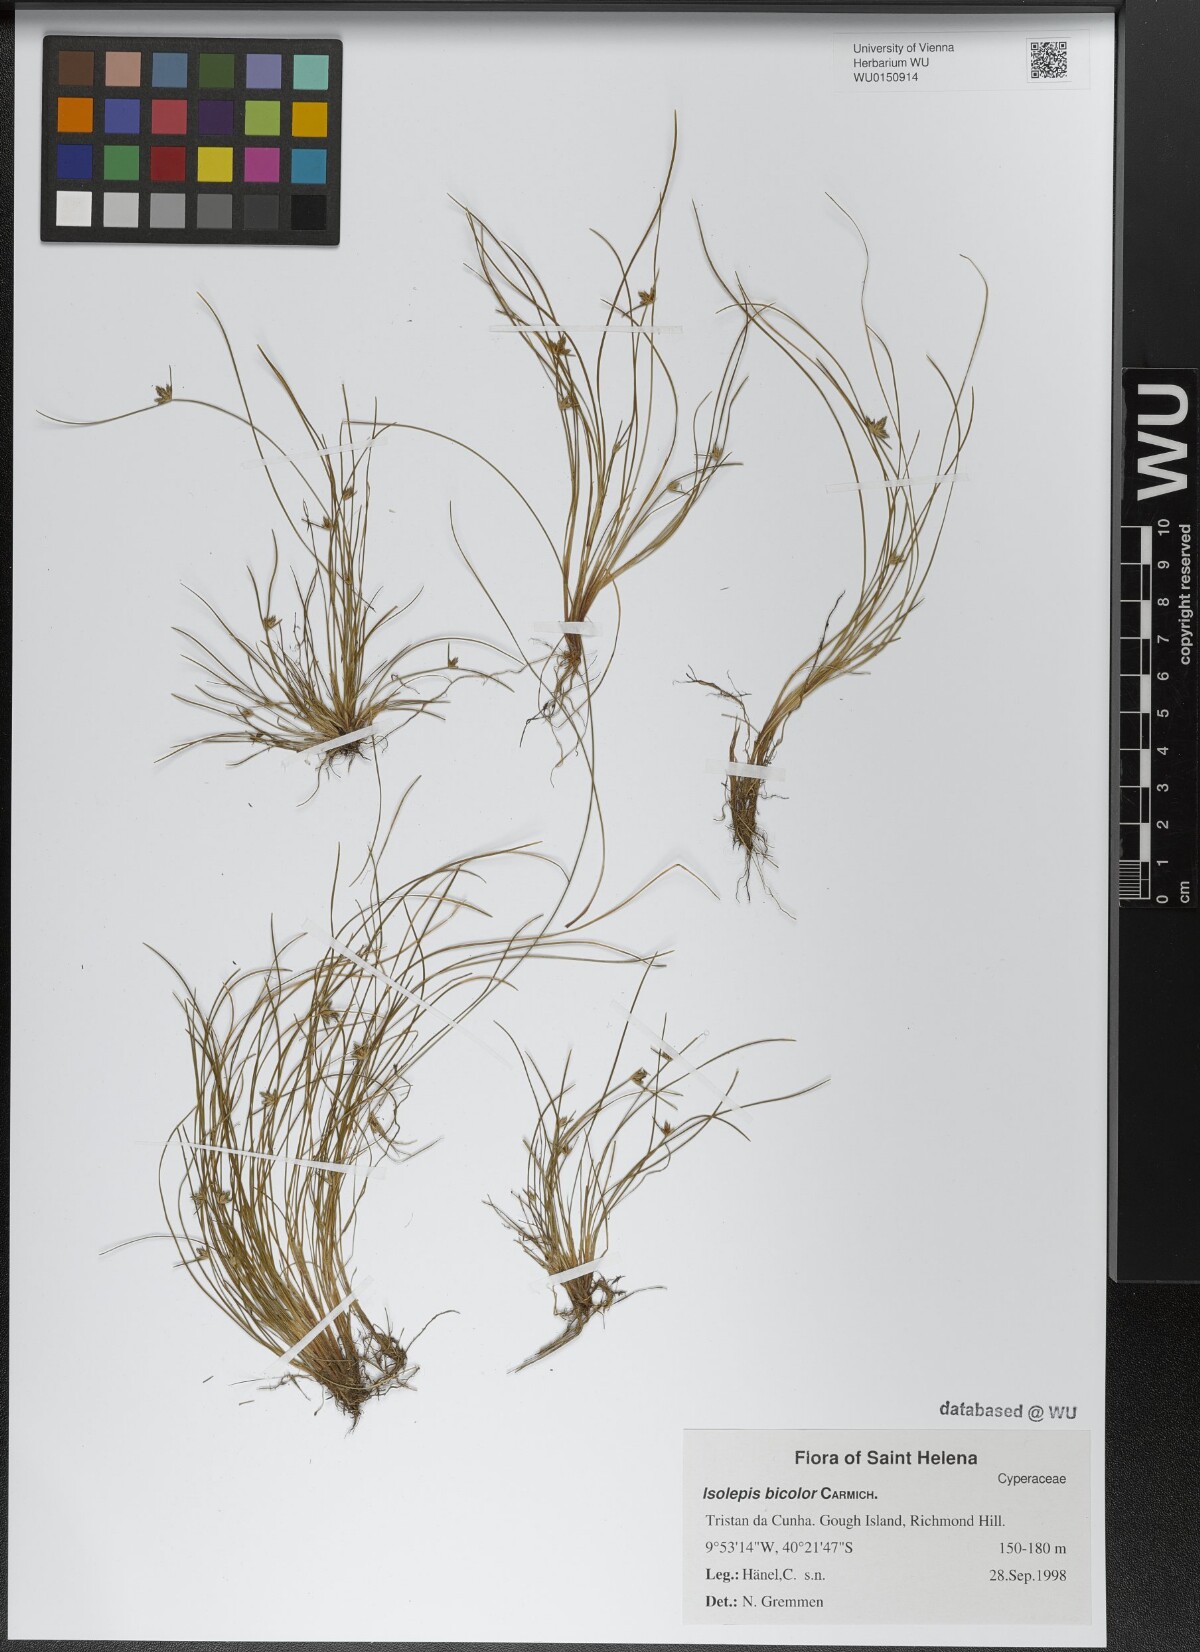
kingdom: Plantae
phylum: Tracheophyta
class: Liliopsida
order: Poales
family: Cyperaceae
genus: Isolepis
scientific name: Isolepis bicolor
